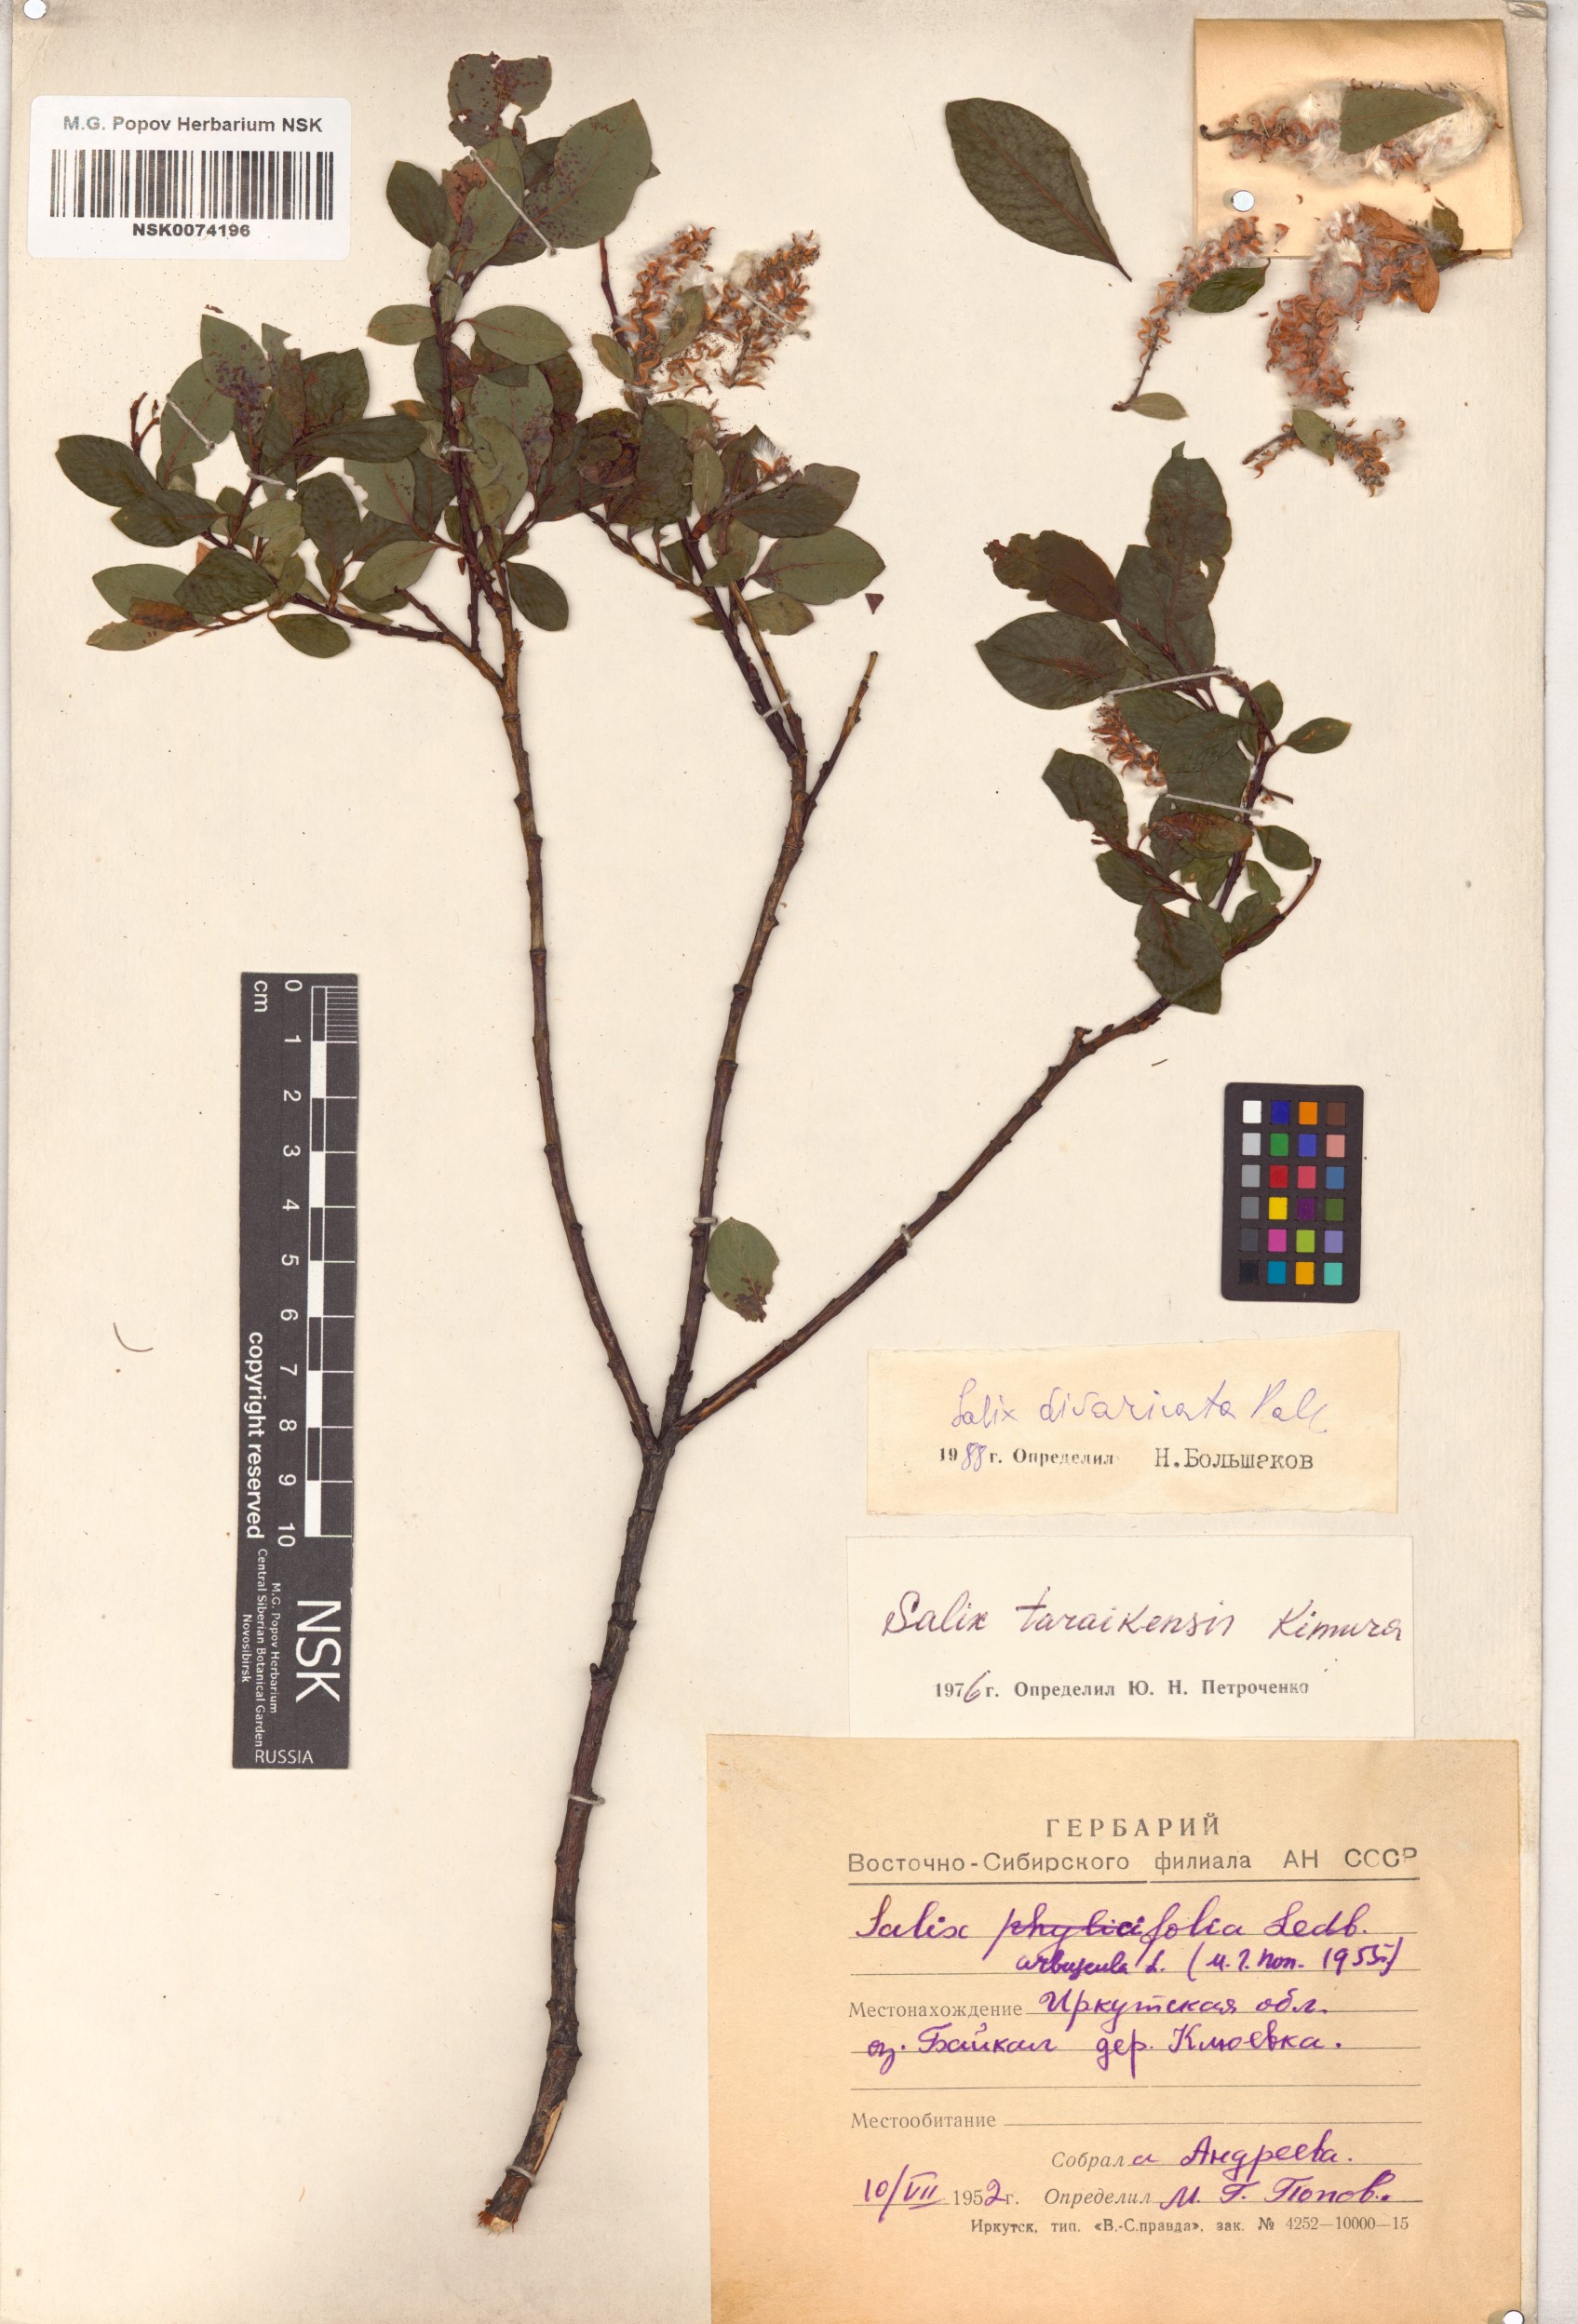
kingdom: Plantae
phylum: Tracheophyta
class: Magnoliopsida
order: Malpighiales
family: Salicaceae
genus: Salix
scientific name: Salix divaricata
